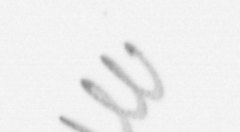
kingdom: Chromista
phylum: Ochrophyta
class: Bacillariophyceae
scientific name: Bacillariophyceae
